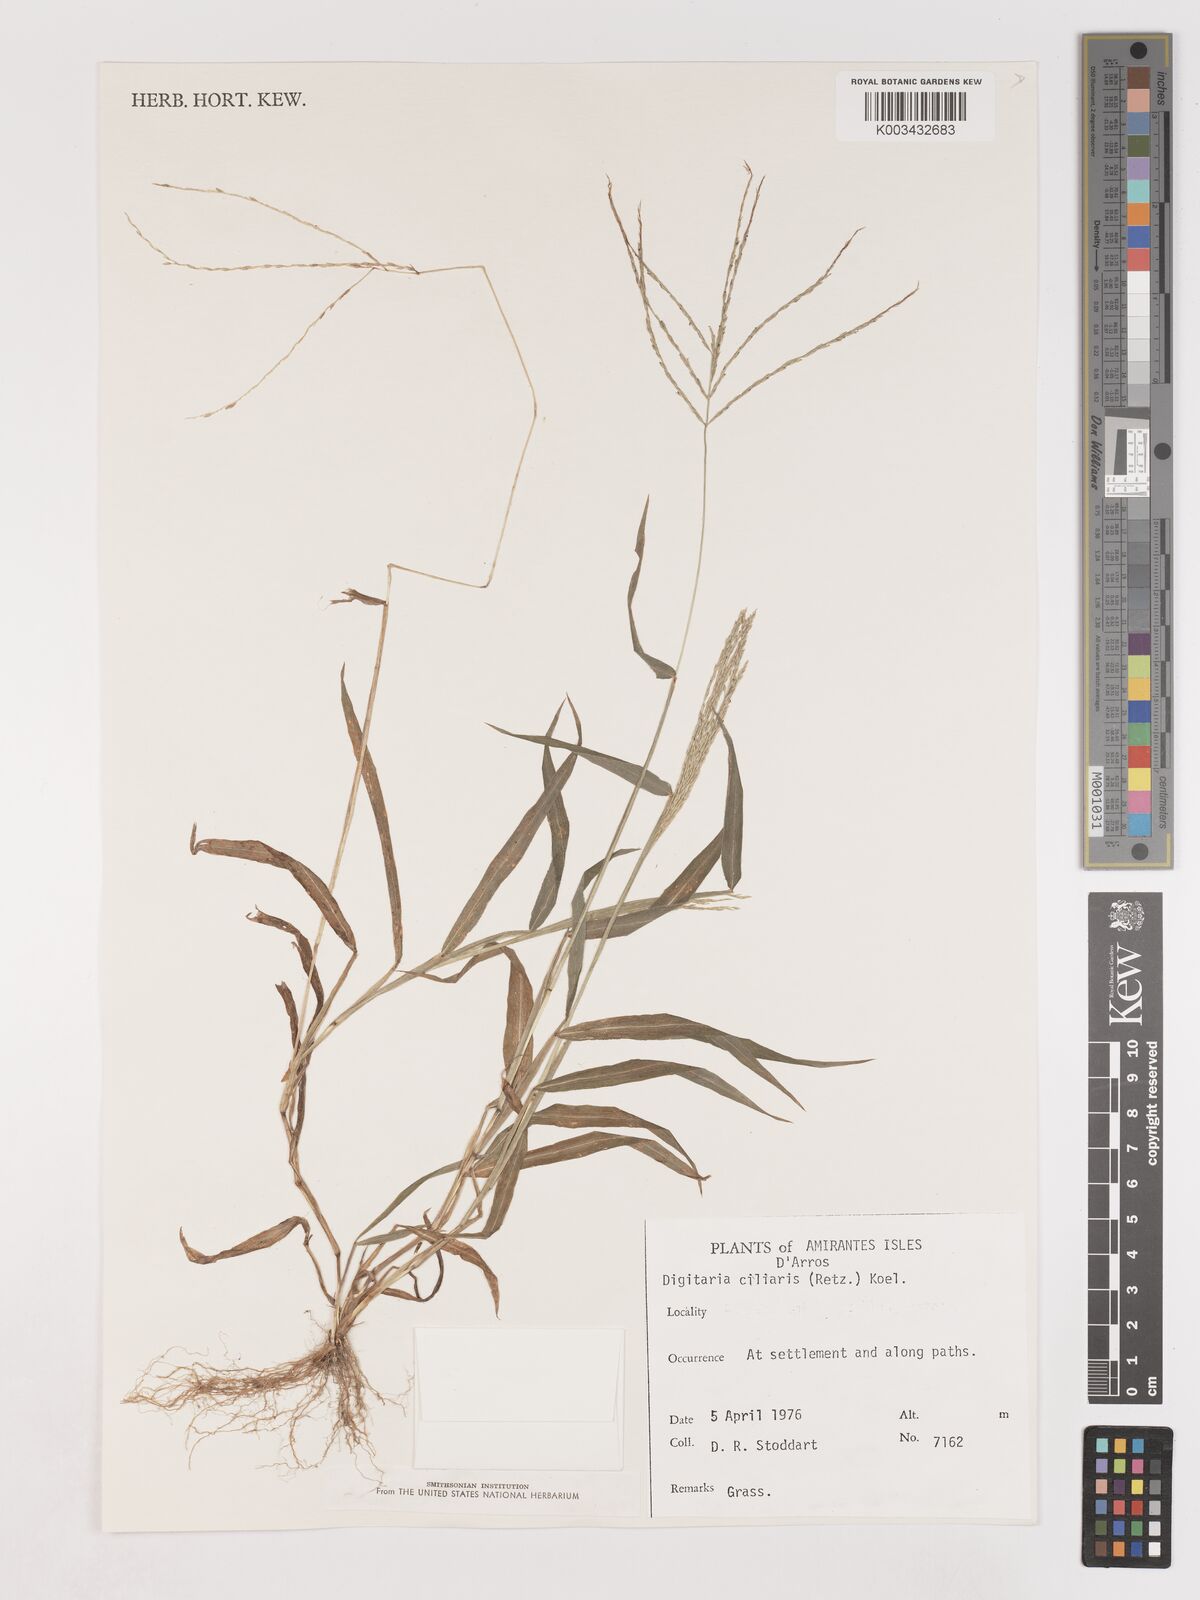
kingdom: Plantae
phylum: Tracheophyta
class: Liliopsida
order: Poales
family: Poaceae
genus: Digitaria
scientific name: Digitaria ciliaris
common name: Tropical finger-grass
